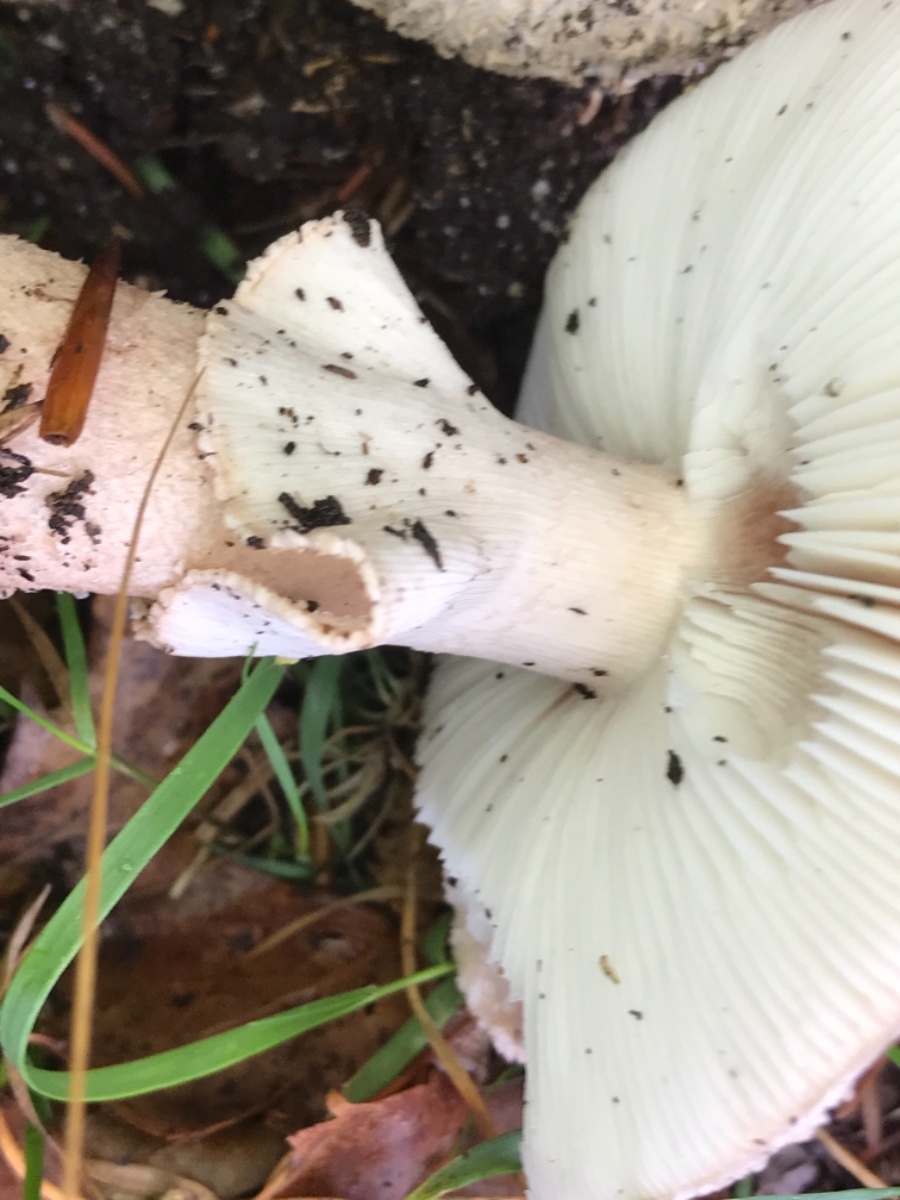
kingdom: Fungi
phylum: Basidiomycota
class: Agaricomycetes
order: Agaricales
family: Amanitaceae
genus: Amanita
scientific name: Amanita rubescens
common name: rødmende fluesvamp
